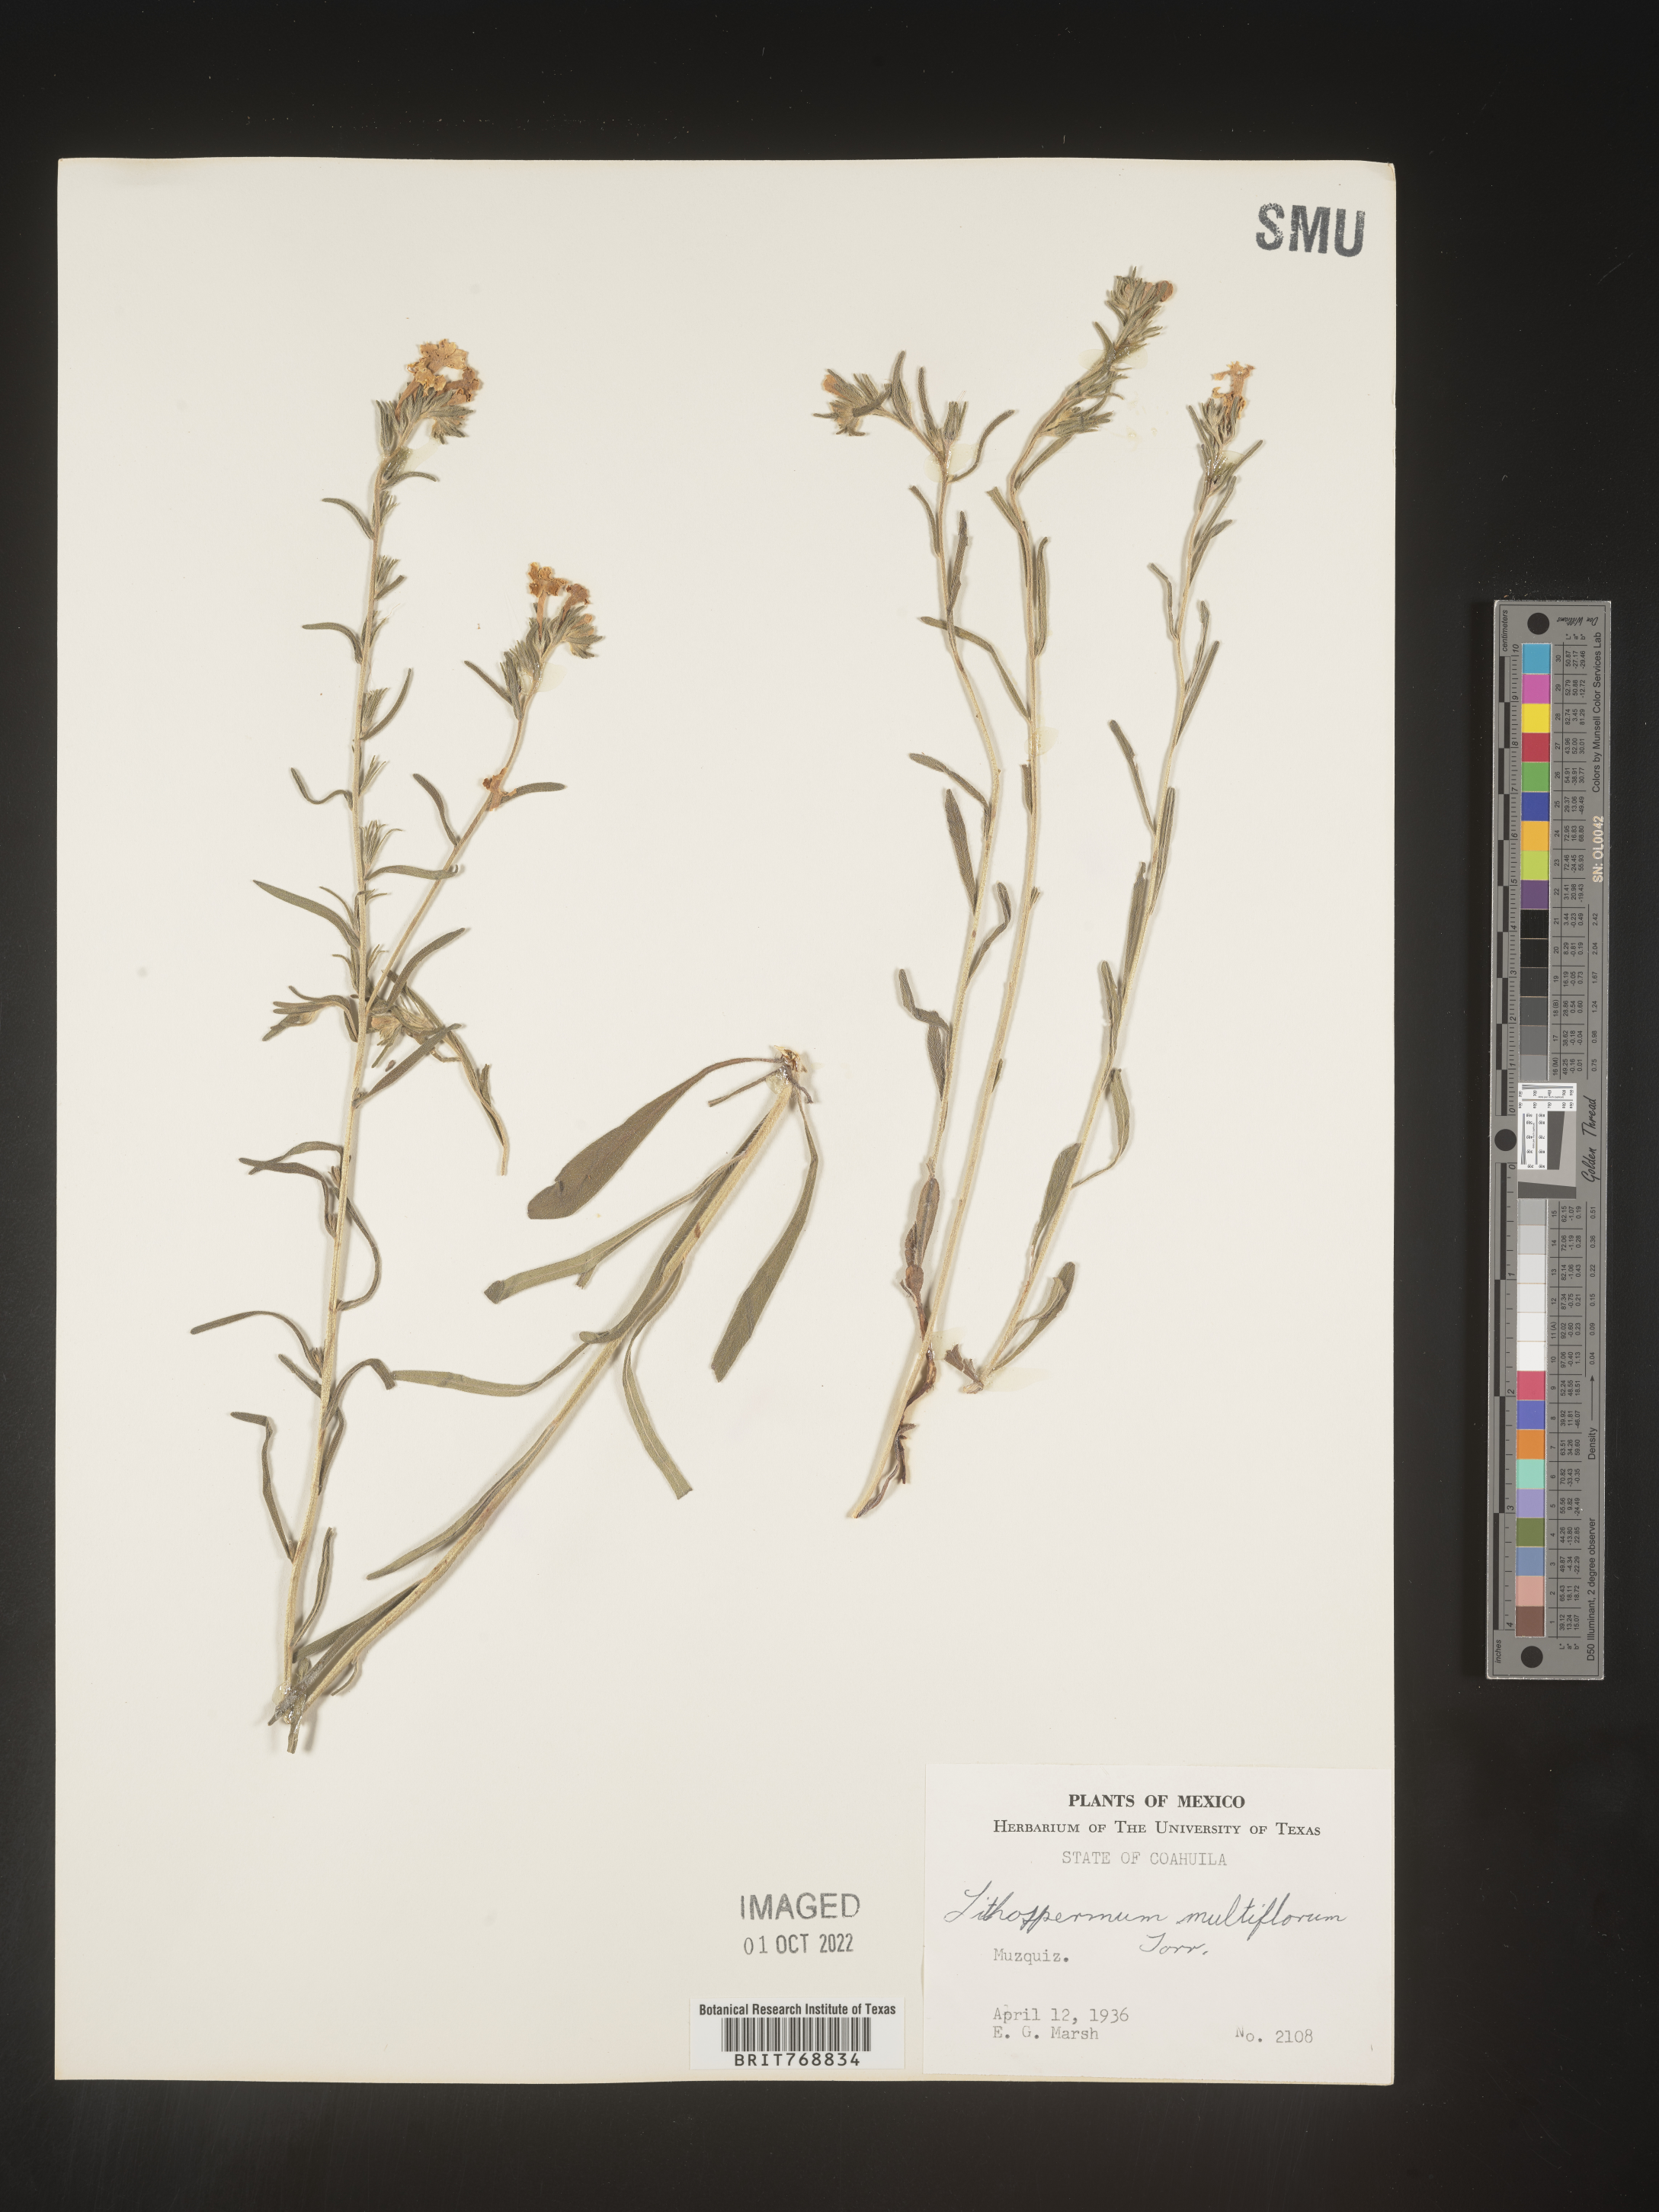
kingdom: Plantae
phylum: Tracheophyta
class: Magnoliopsida
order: Boraginales
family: Boraginaceae
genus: Lithospermum
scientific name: Lithospermum
